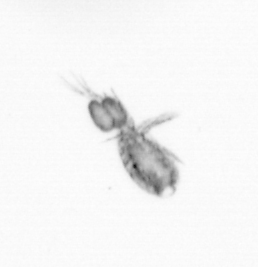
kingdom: Animalia
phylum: Arthropoda
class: Copepoda
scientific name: Copepoda
